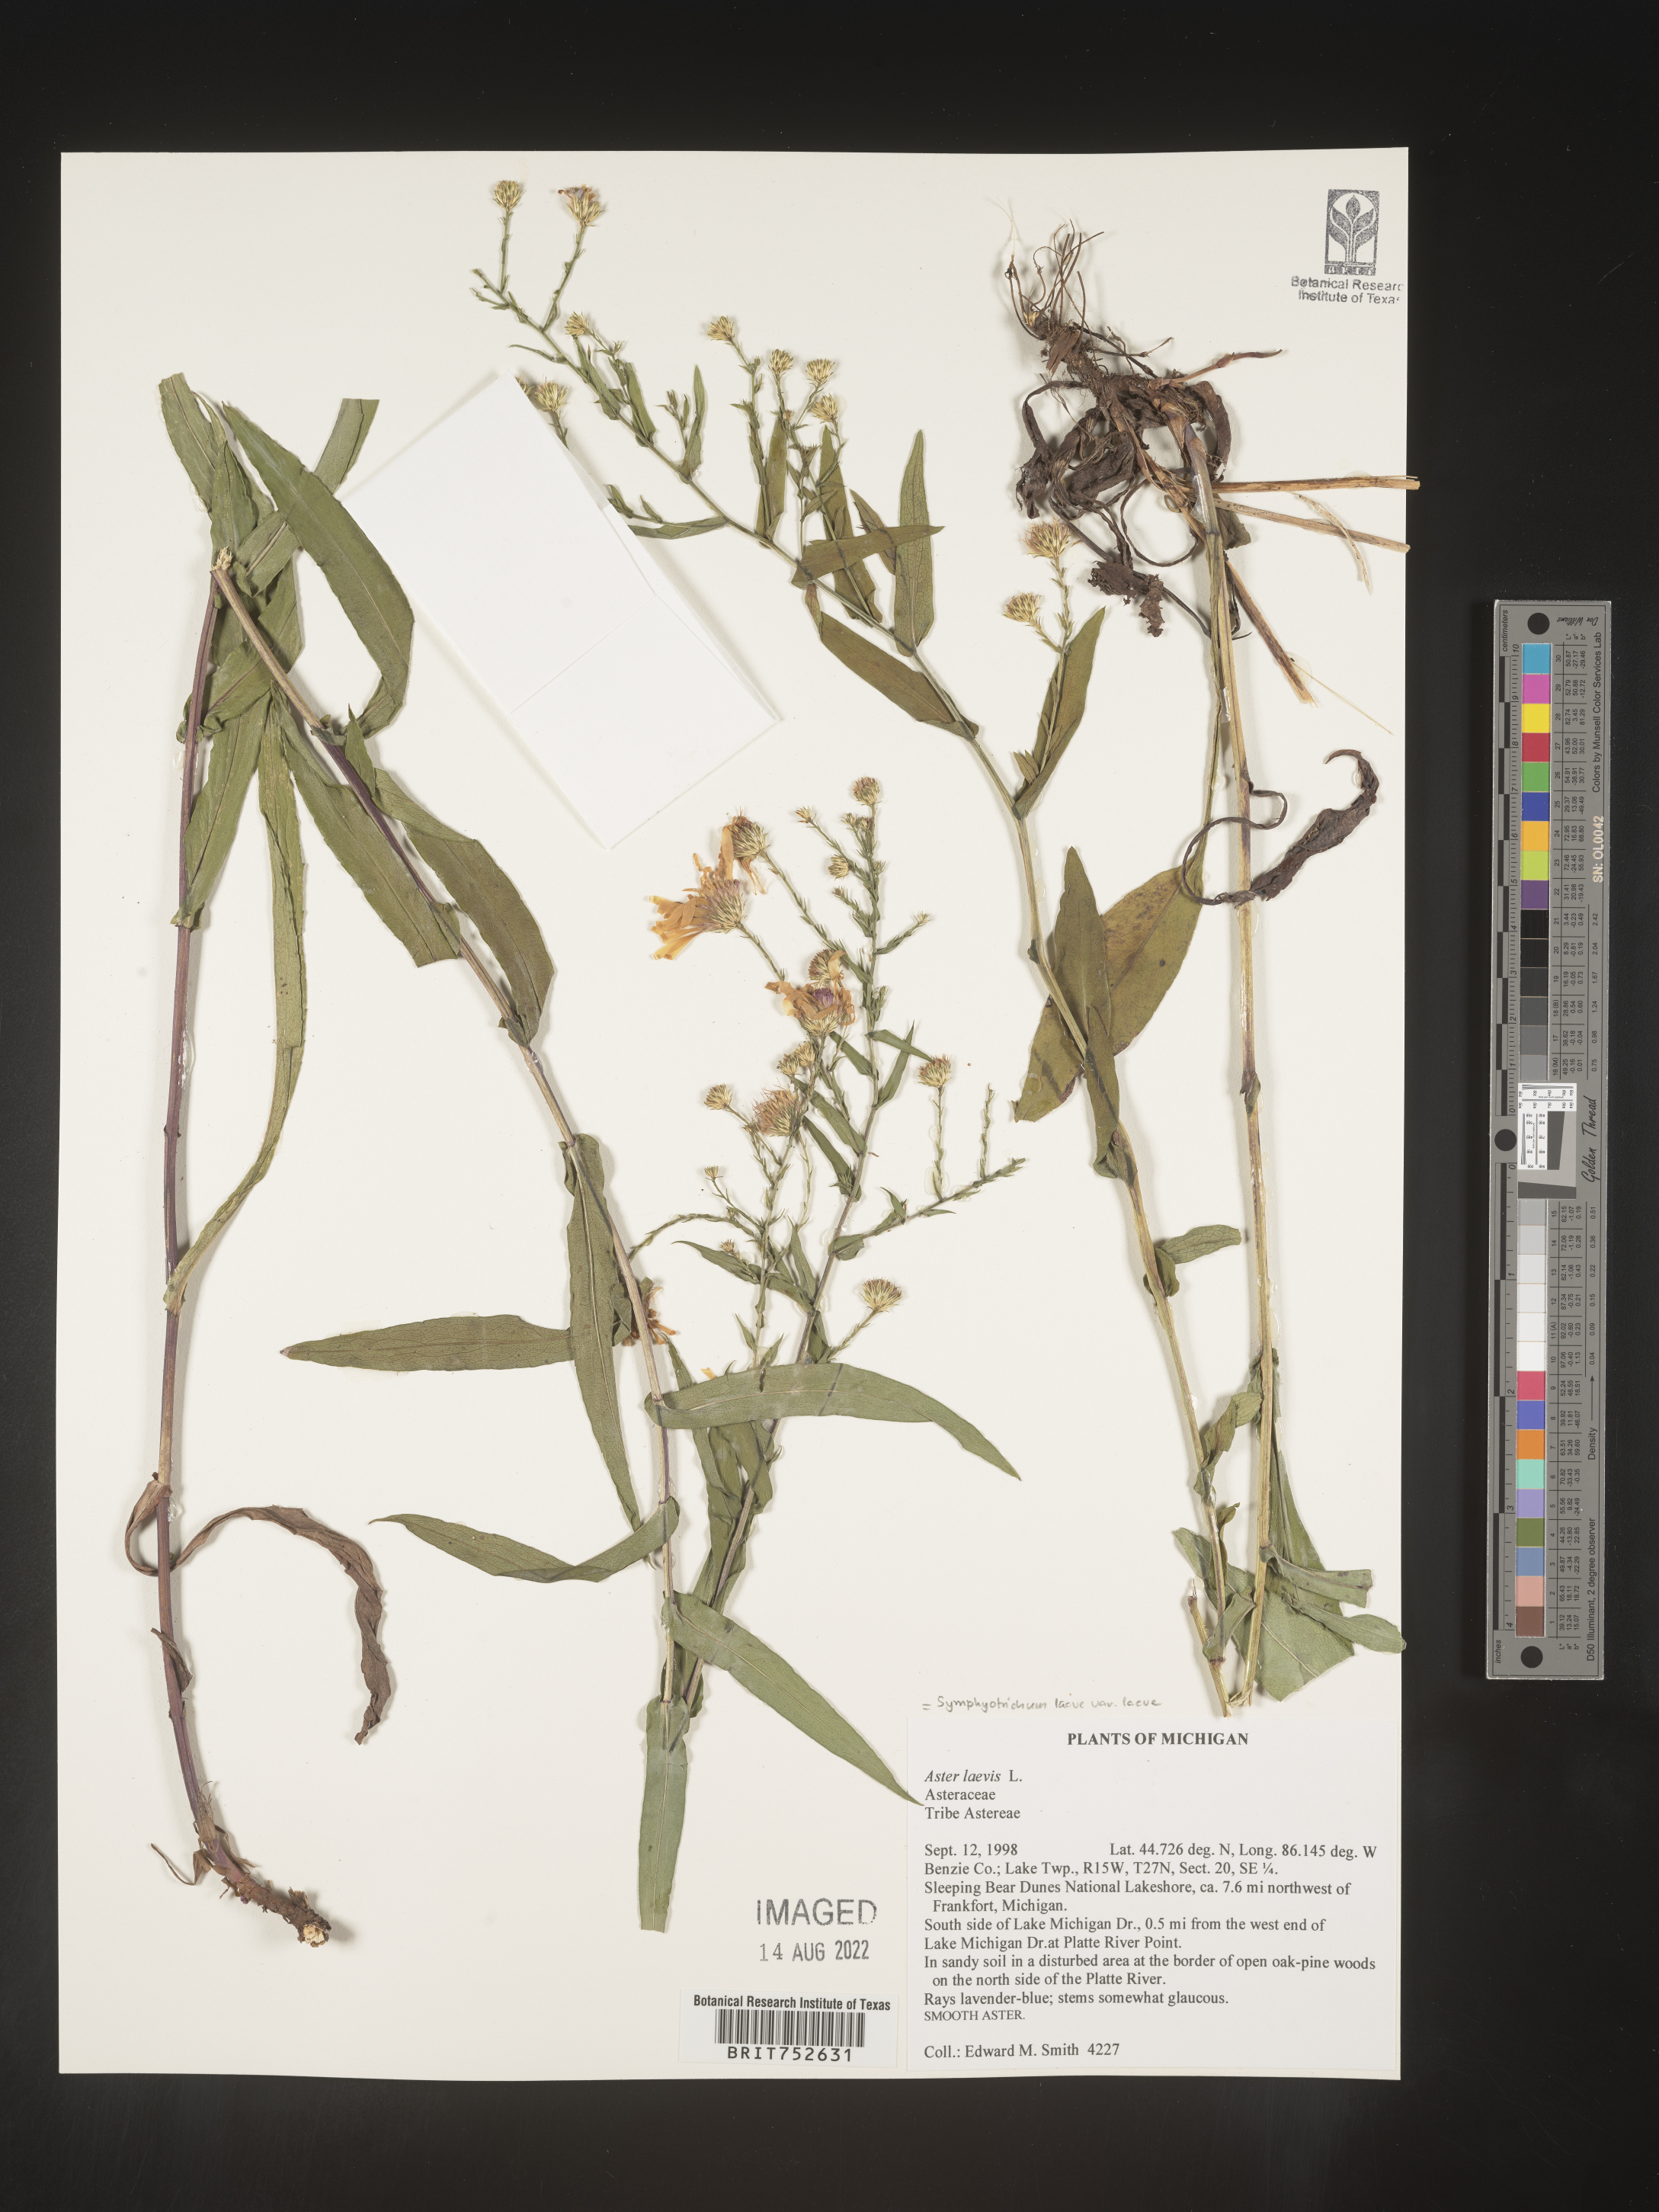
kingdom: Plantae
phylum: Tracheophyta
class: Magnoliopsida
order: Asterales
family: Asteraceae
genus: Symphyotrichum
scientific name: Symphyotrichum laeve
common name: Glaucous aster
